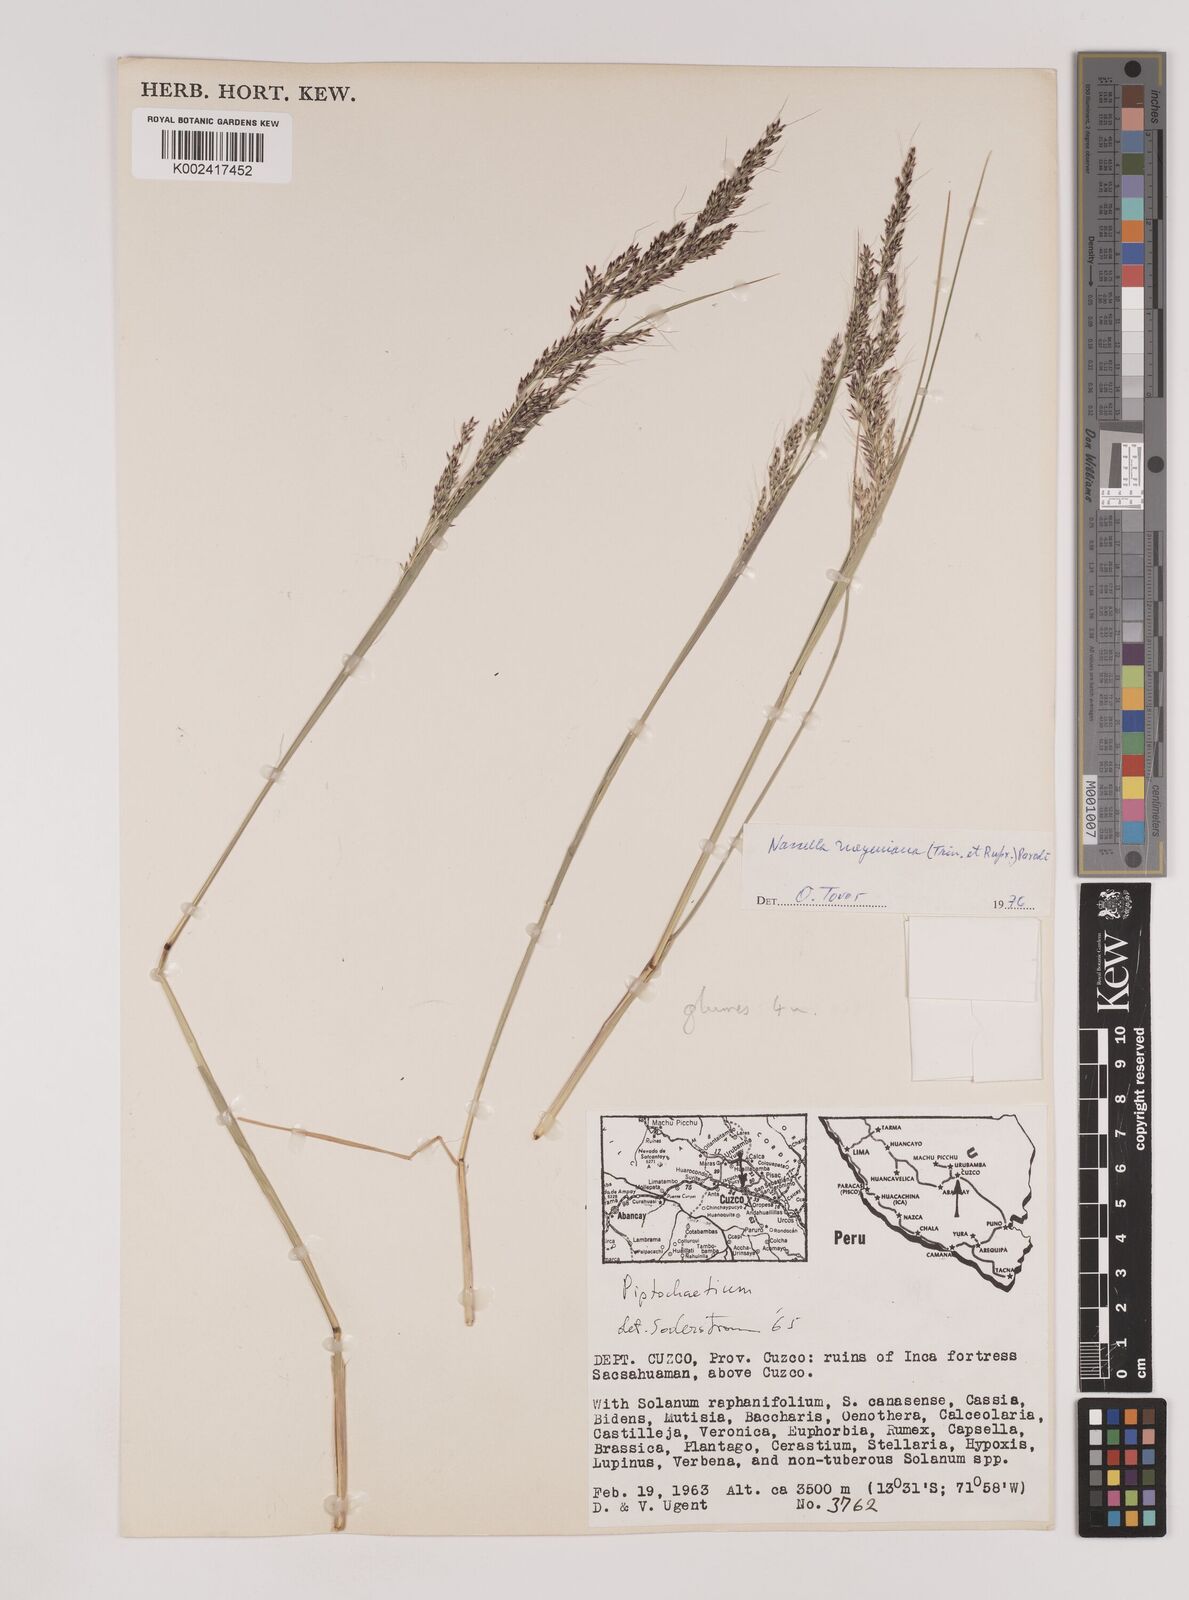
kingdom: Plantae
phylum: Tracheophyta
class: Liliopsida
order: Poales
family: Poaceae
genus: Nassella
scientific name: Nassella meyeniana
